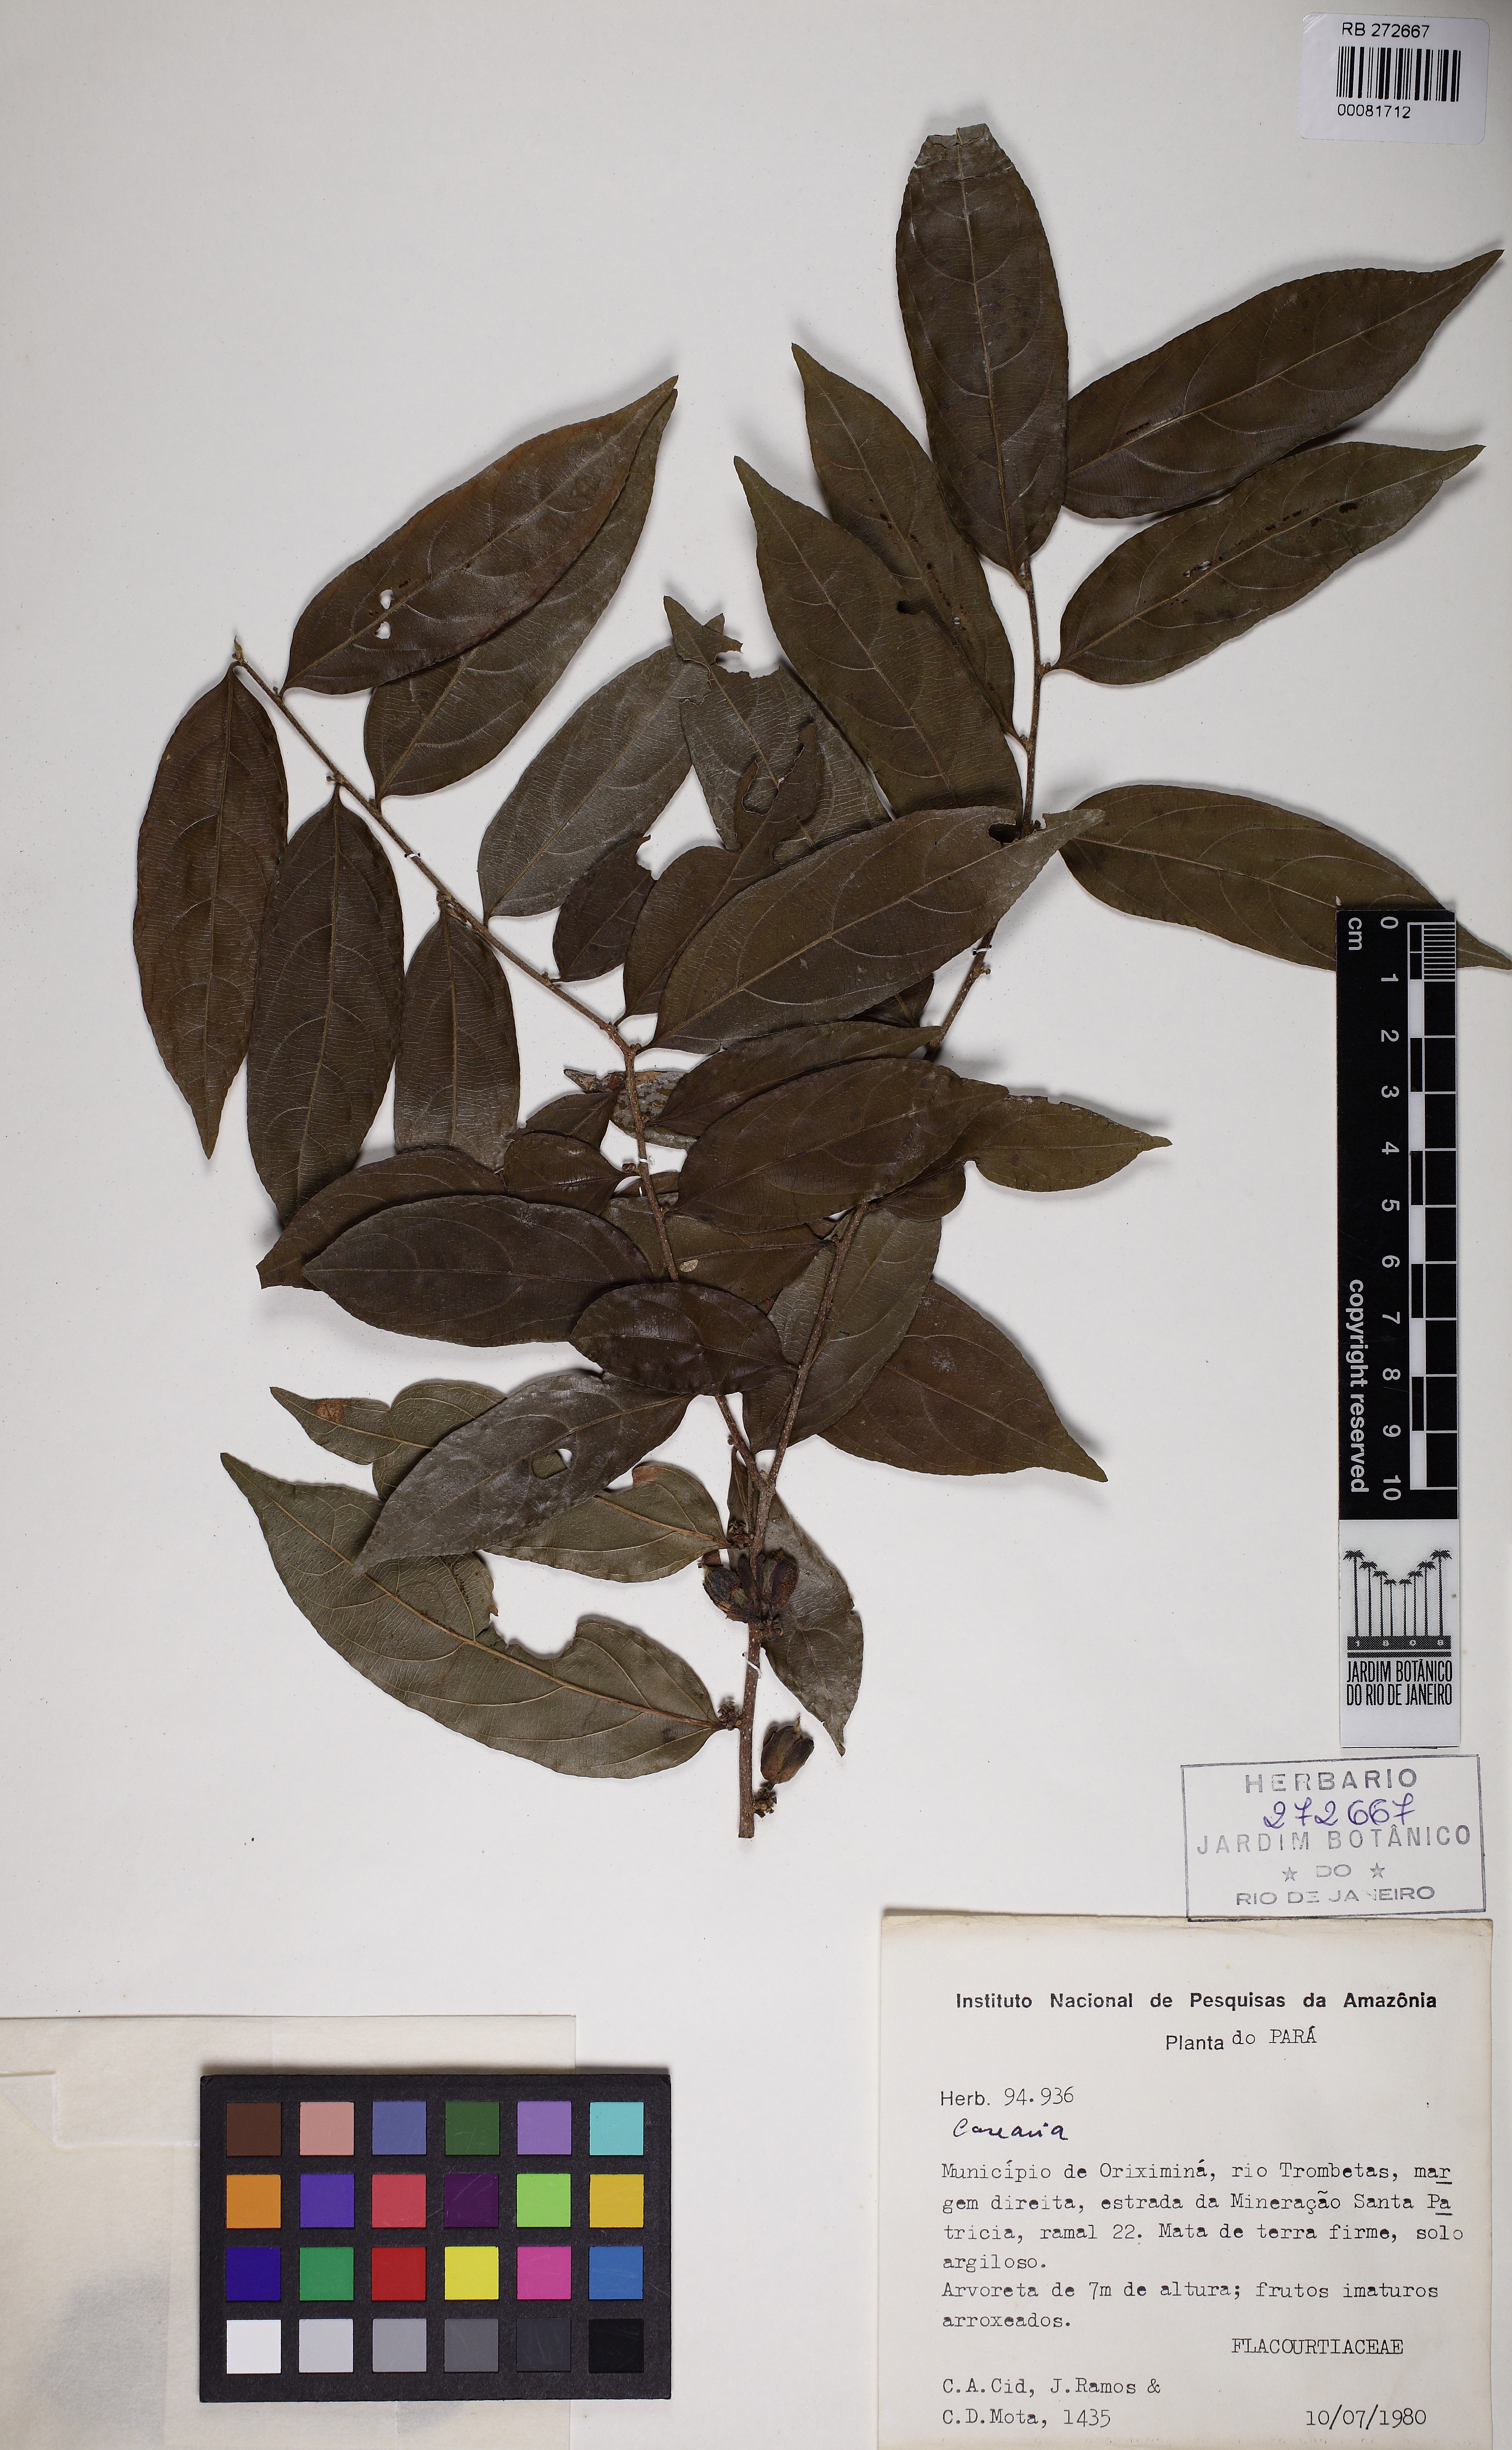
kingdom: Plantae
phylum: Tracheophyta
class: Magnoliopsida
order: Malpighiales
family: Salicaceae
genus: Piparea
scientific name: Piparea spruceana
